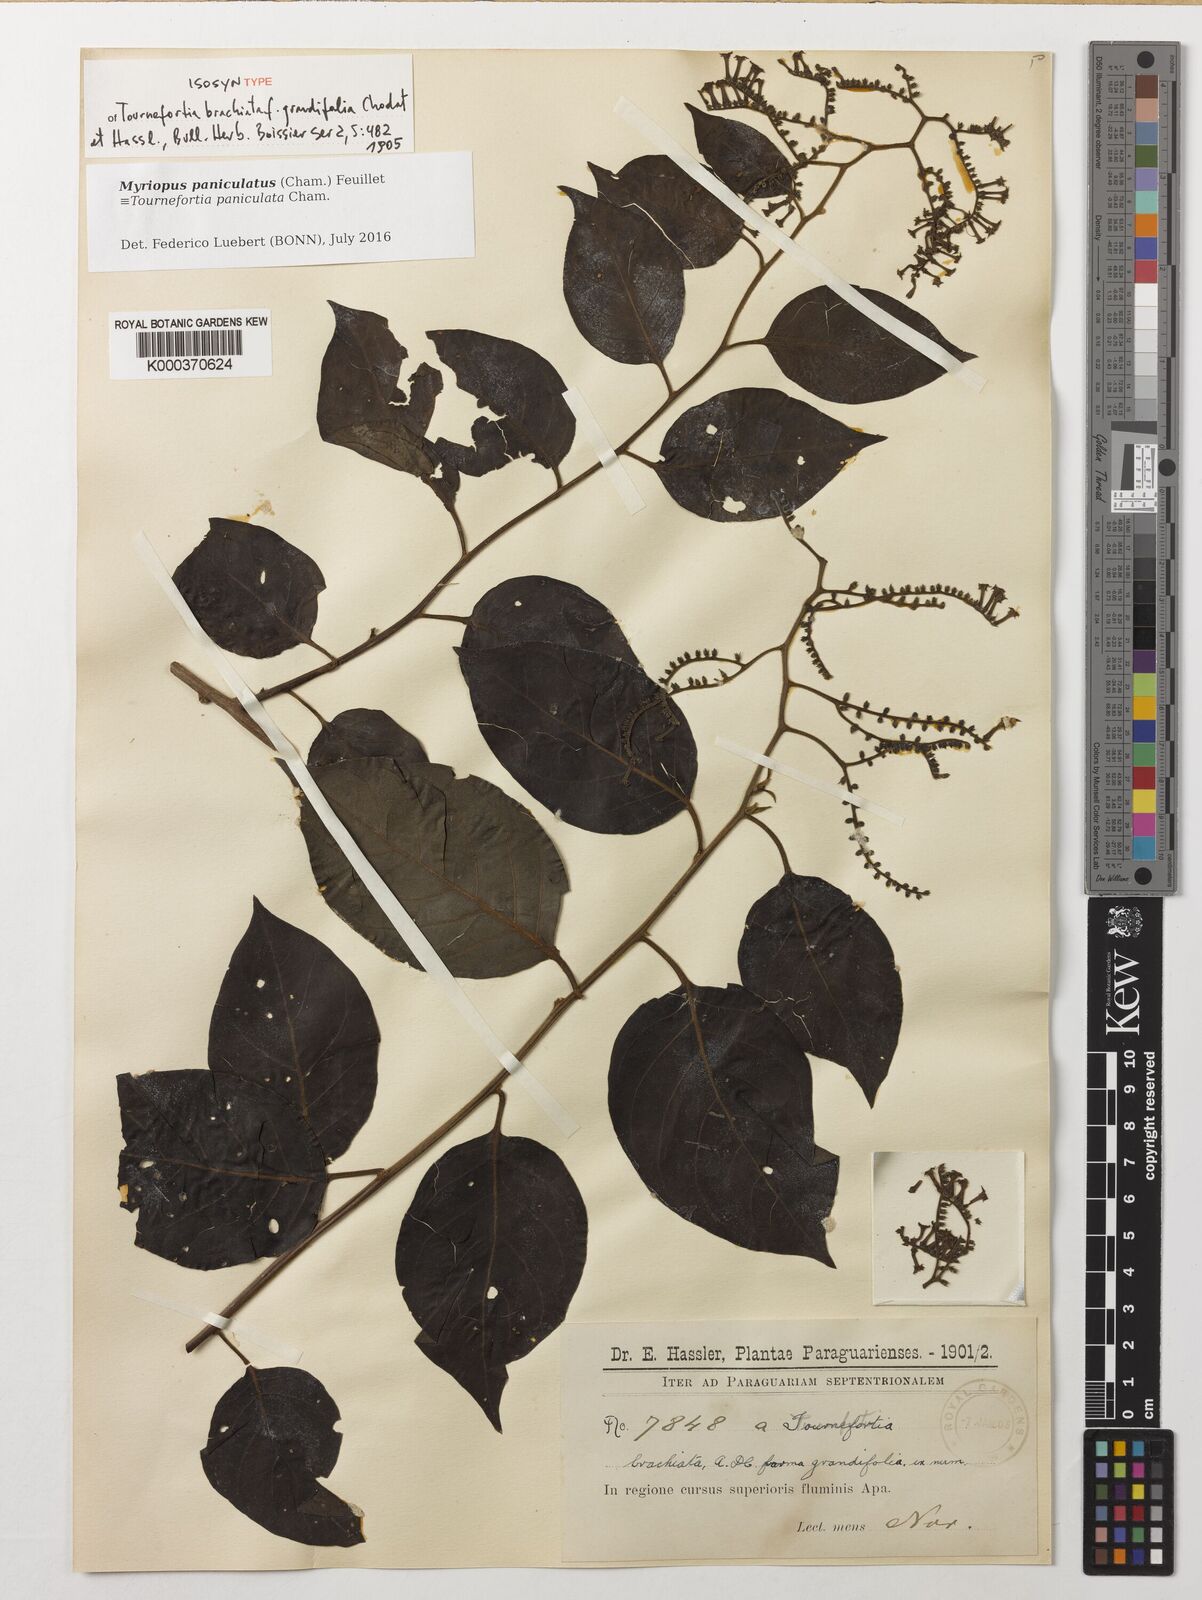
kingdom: Plantae
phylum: Tracheophyta
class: Magnoliopsida
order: Boraginales
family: Heliotropiaceae
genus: Myriopus
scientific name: Myriopus paniculatus
